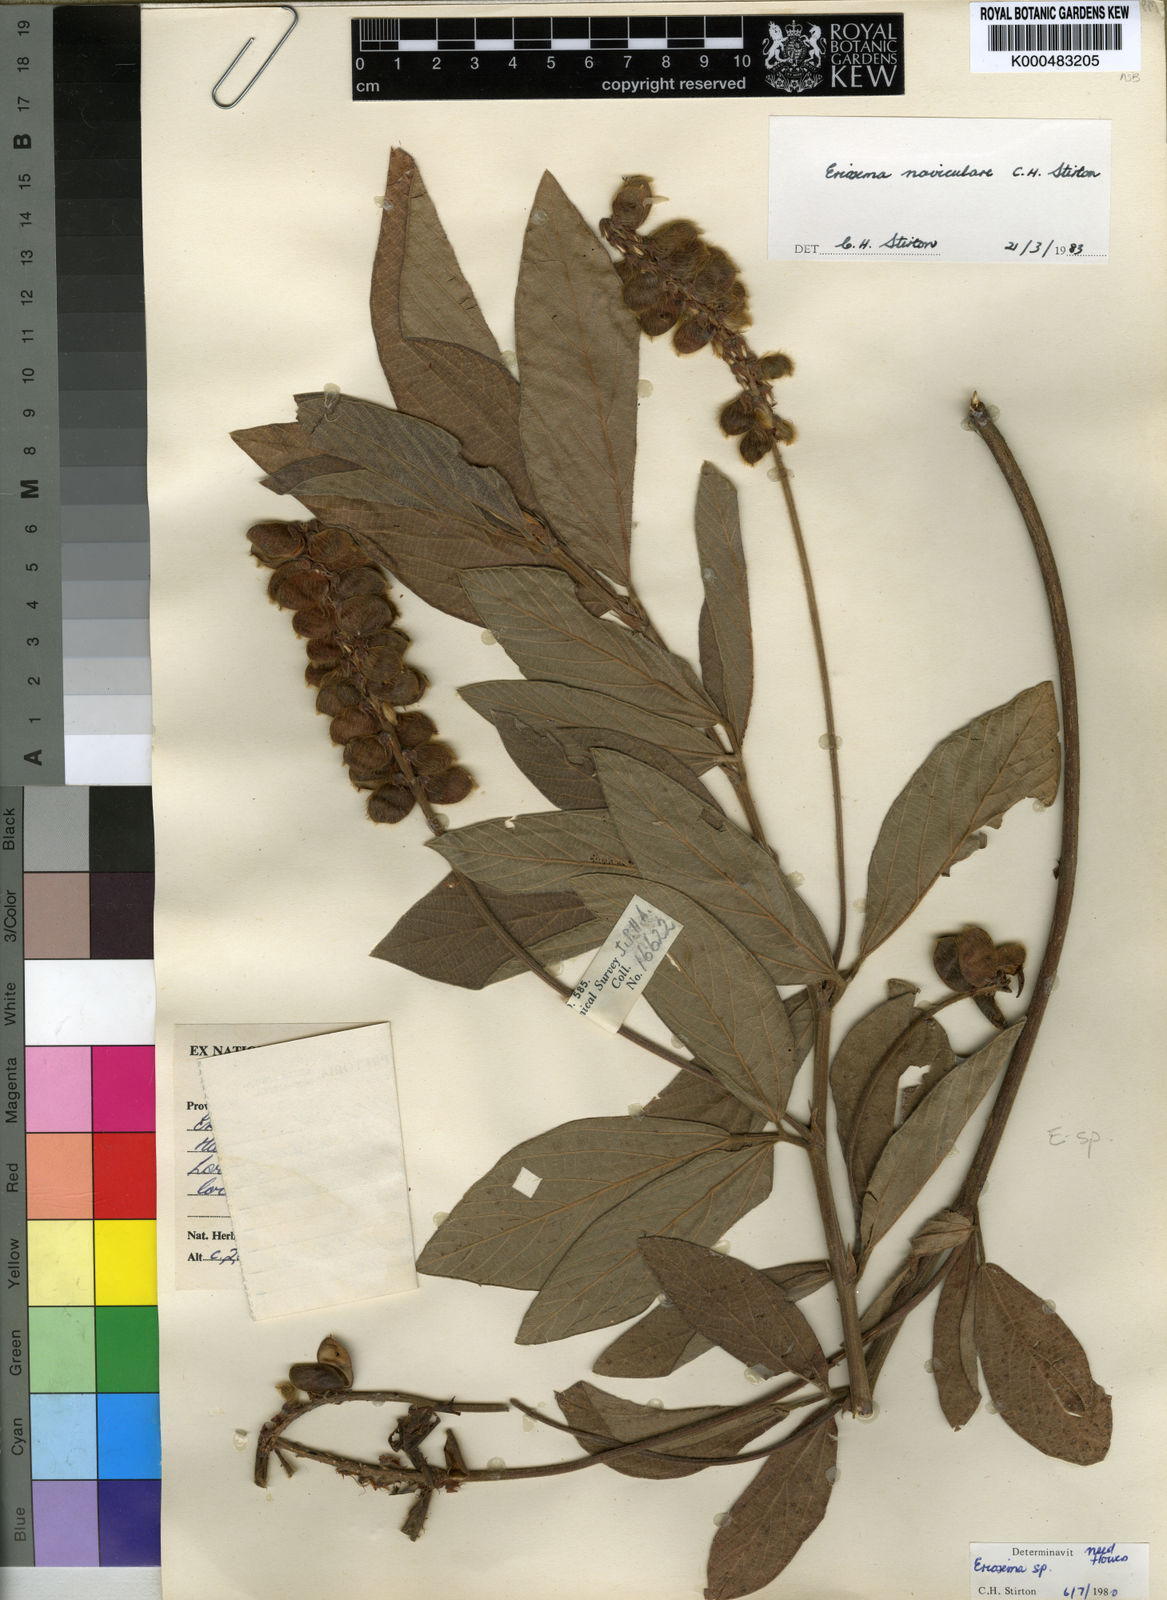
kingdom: Plantae
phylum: Tracheophyta
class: Magnoliopsida
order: Fabales
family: Fabaceae
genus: Eriosema
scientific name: Eriosema naviculare
